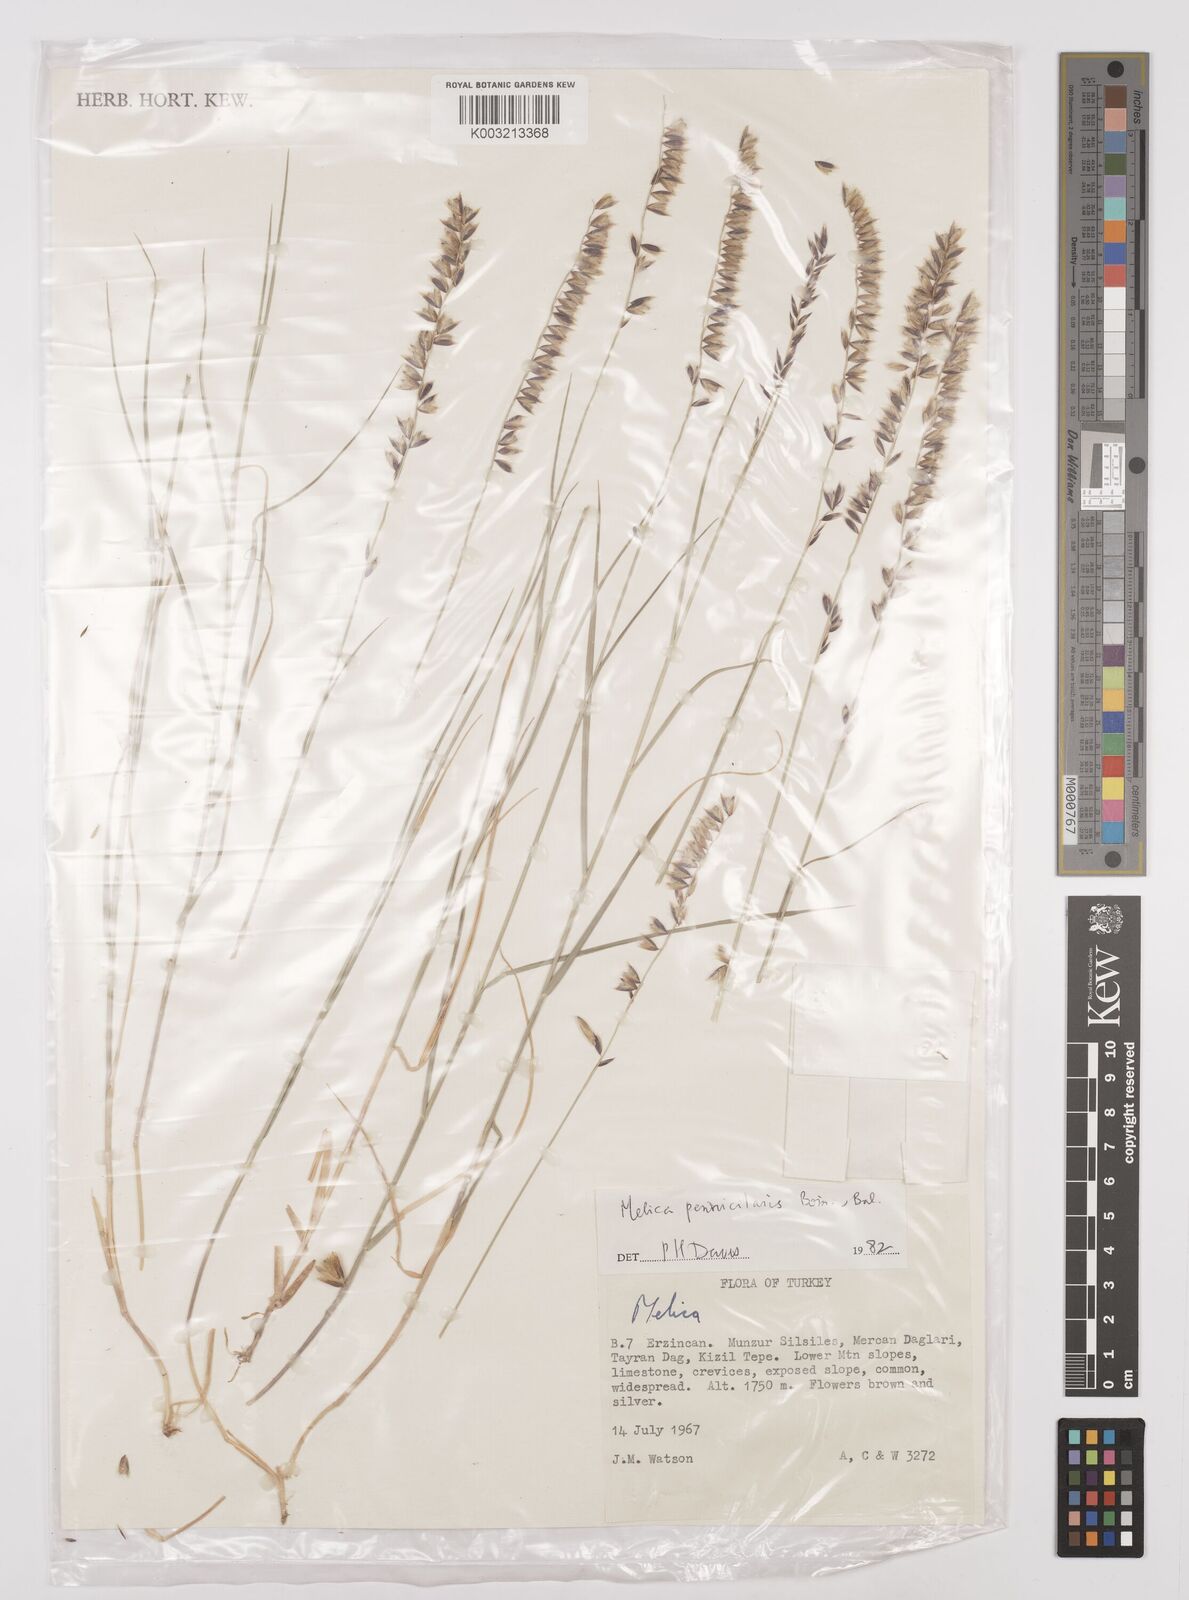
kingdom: Plantae
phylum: Tracheophyta
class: Liliopsida
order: Poales
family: Poaceae
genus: Melica
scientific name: Melica penicillaris
